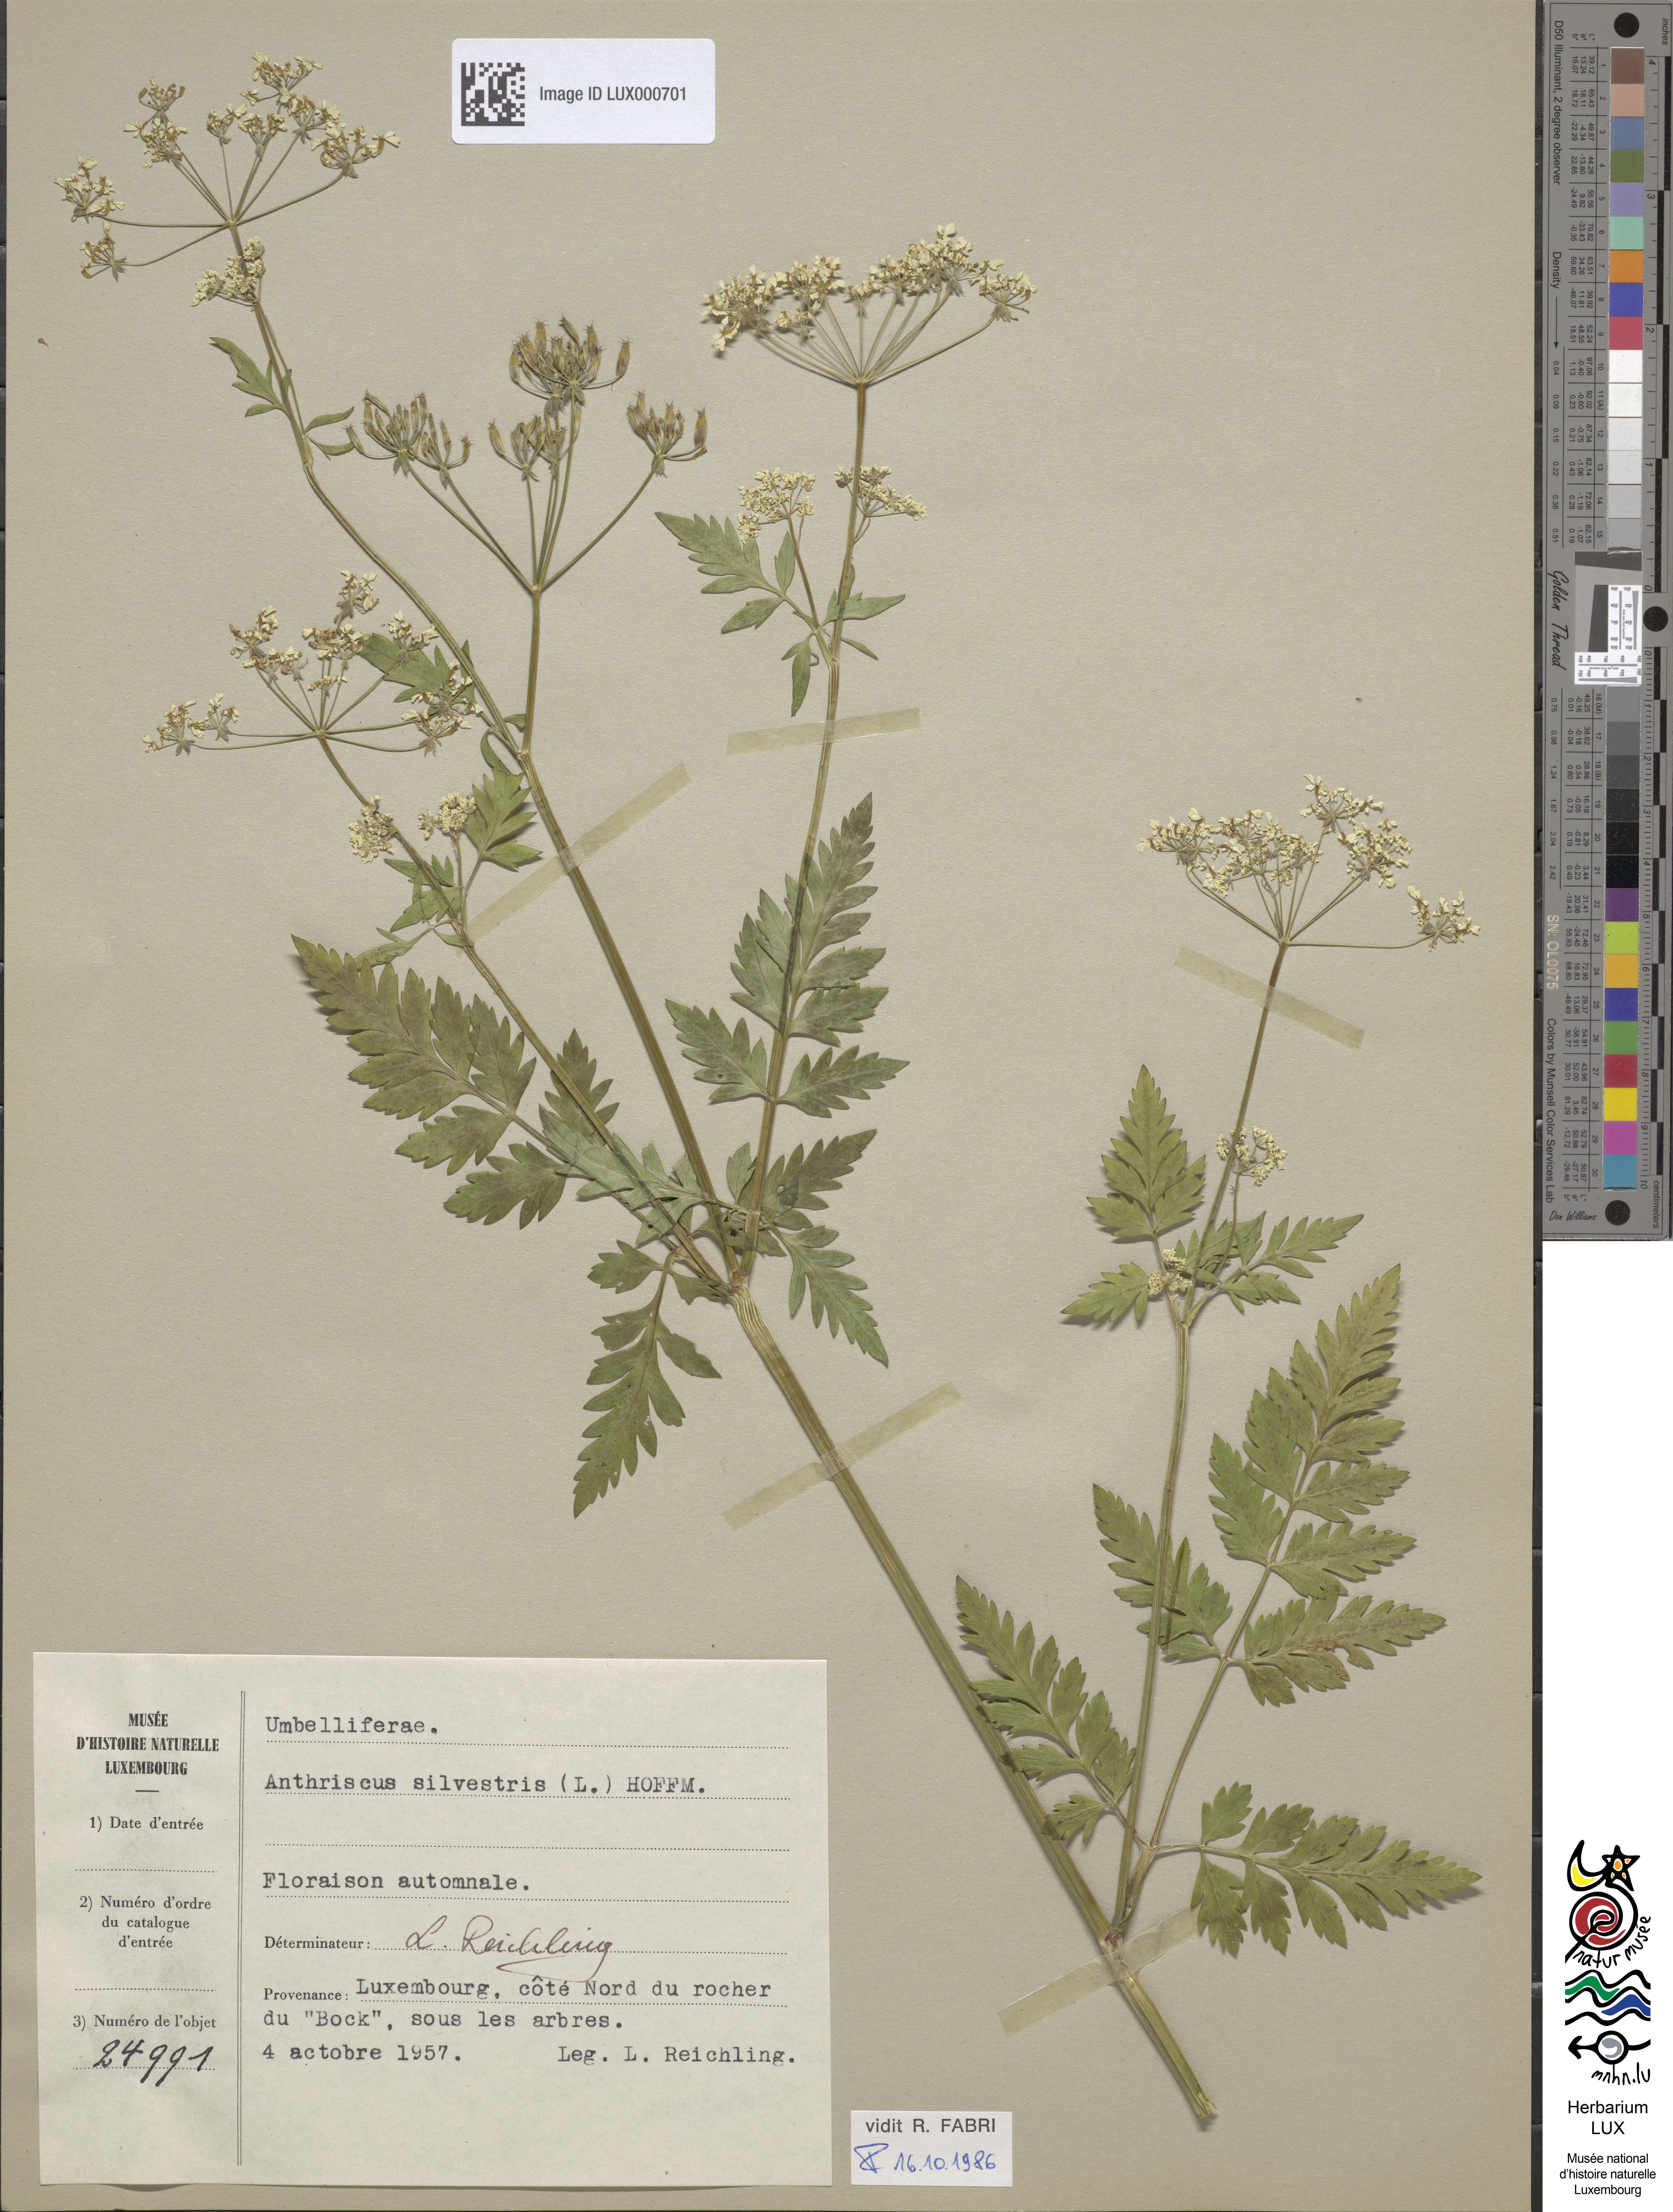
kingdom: Plantae
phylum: Tracheophyta
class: Magnoliopsida
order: Apiales
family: Apiaceae
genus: Anthriscus
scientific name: Anthriscus sylvestris
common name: Cow parsley
